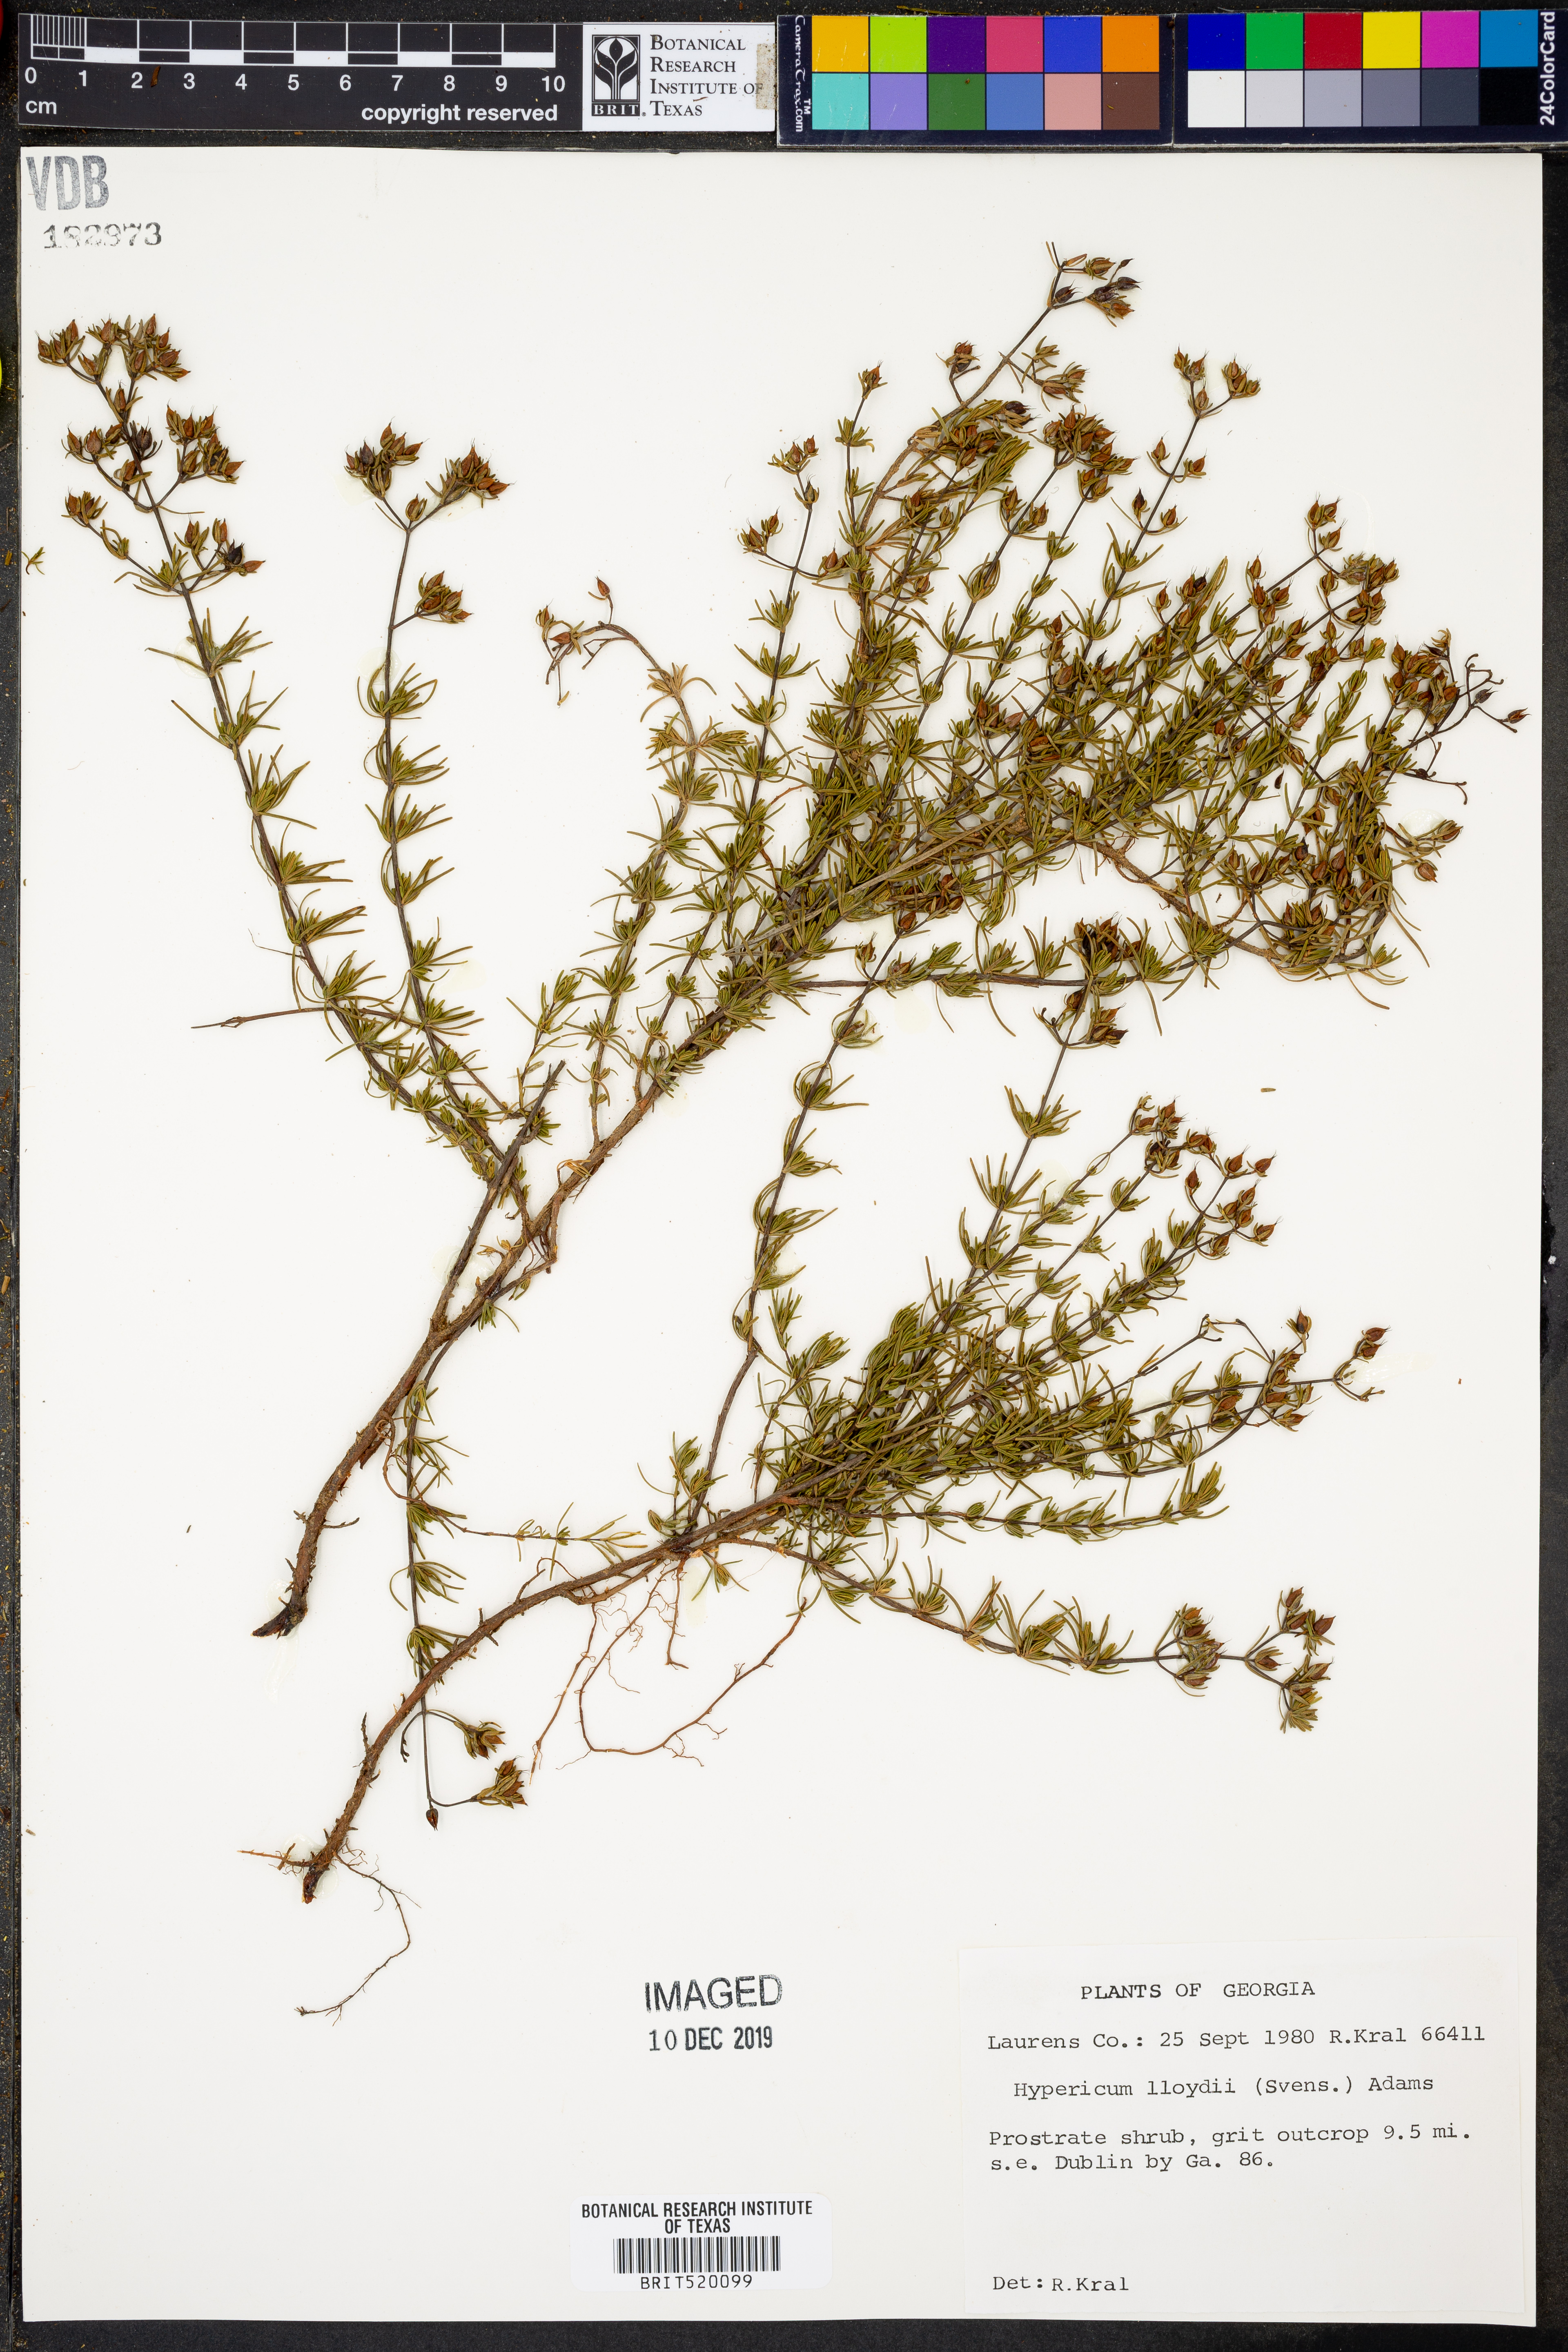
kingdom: Plantae
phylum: Tracheophyta
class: Magnoliopsida
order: Malpighiales
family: Hypericaceae
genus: Hypericum
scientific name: Hypericum lloydii
